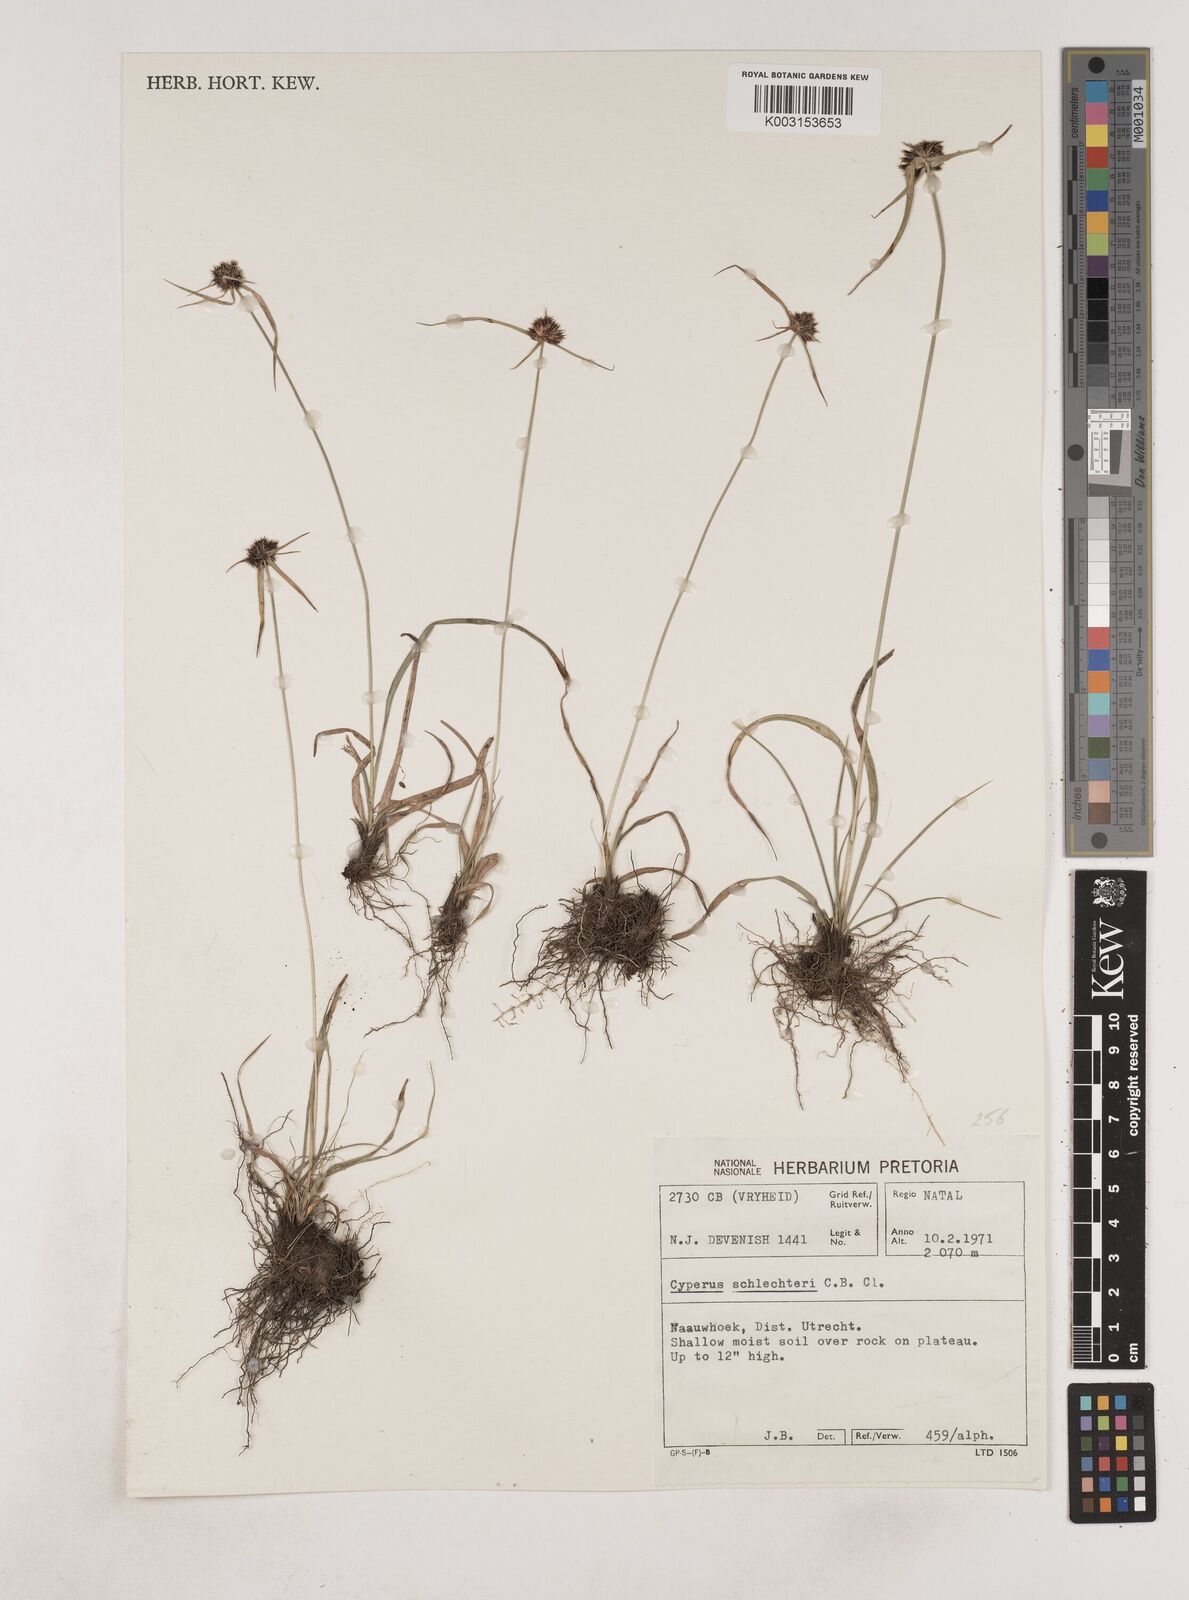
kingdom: Plantae
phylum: Tracheophyta
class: Liliopsida
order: Poales
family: Cyperaceae
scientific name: Cyperaceae
